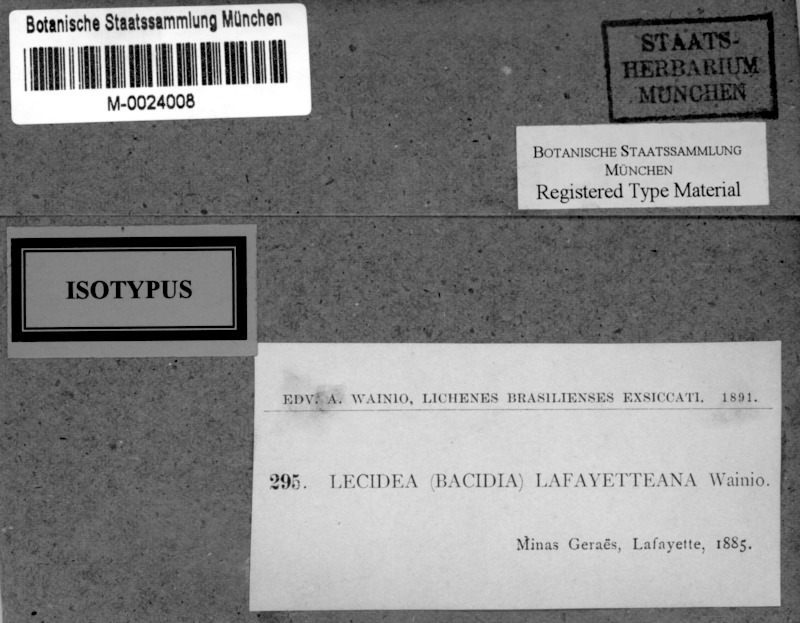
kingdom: Fungi
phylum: Ascomycota
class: Lecanoromycetes
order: Lecanorales
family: Byssolomataceae
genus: Bapalmuia
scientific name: Bapalmuia lafayetteana
